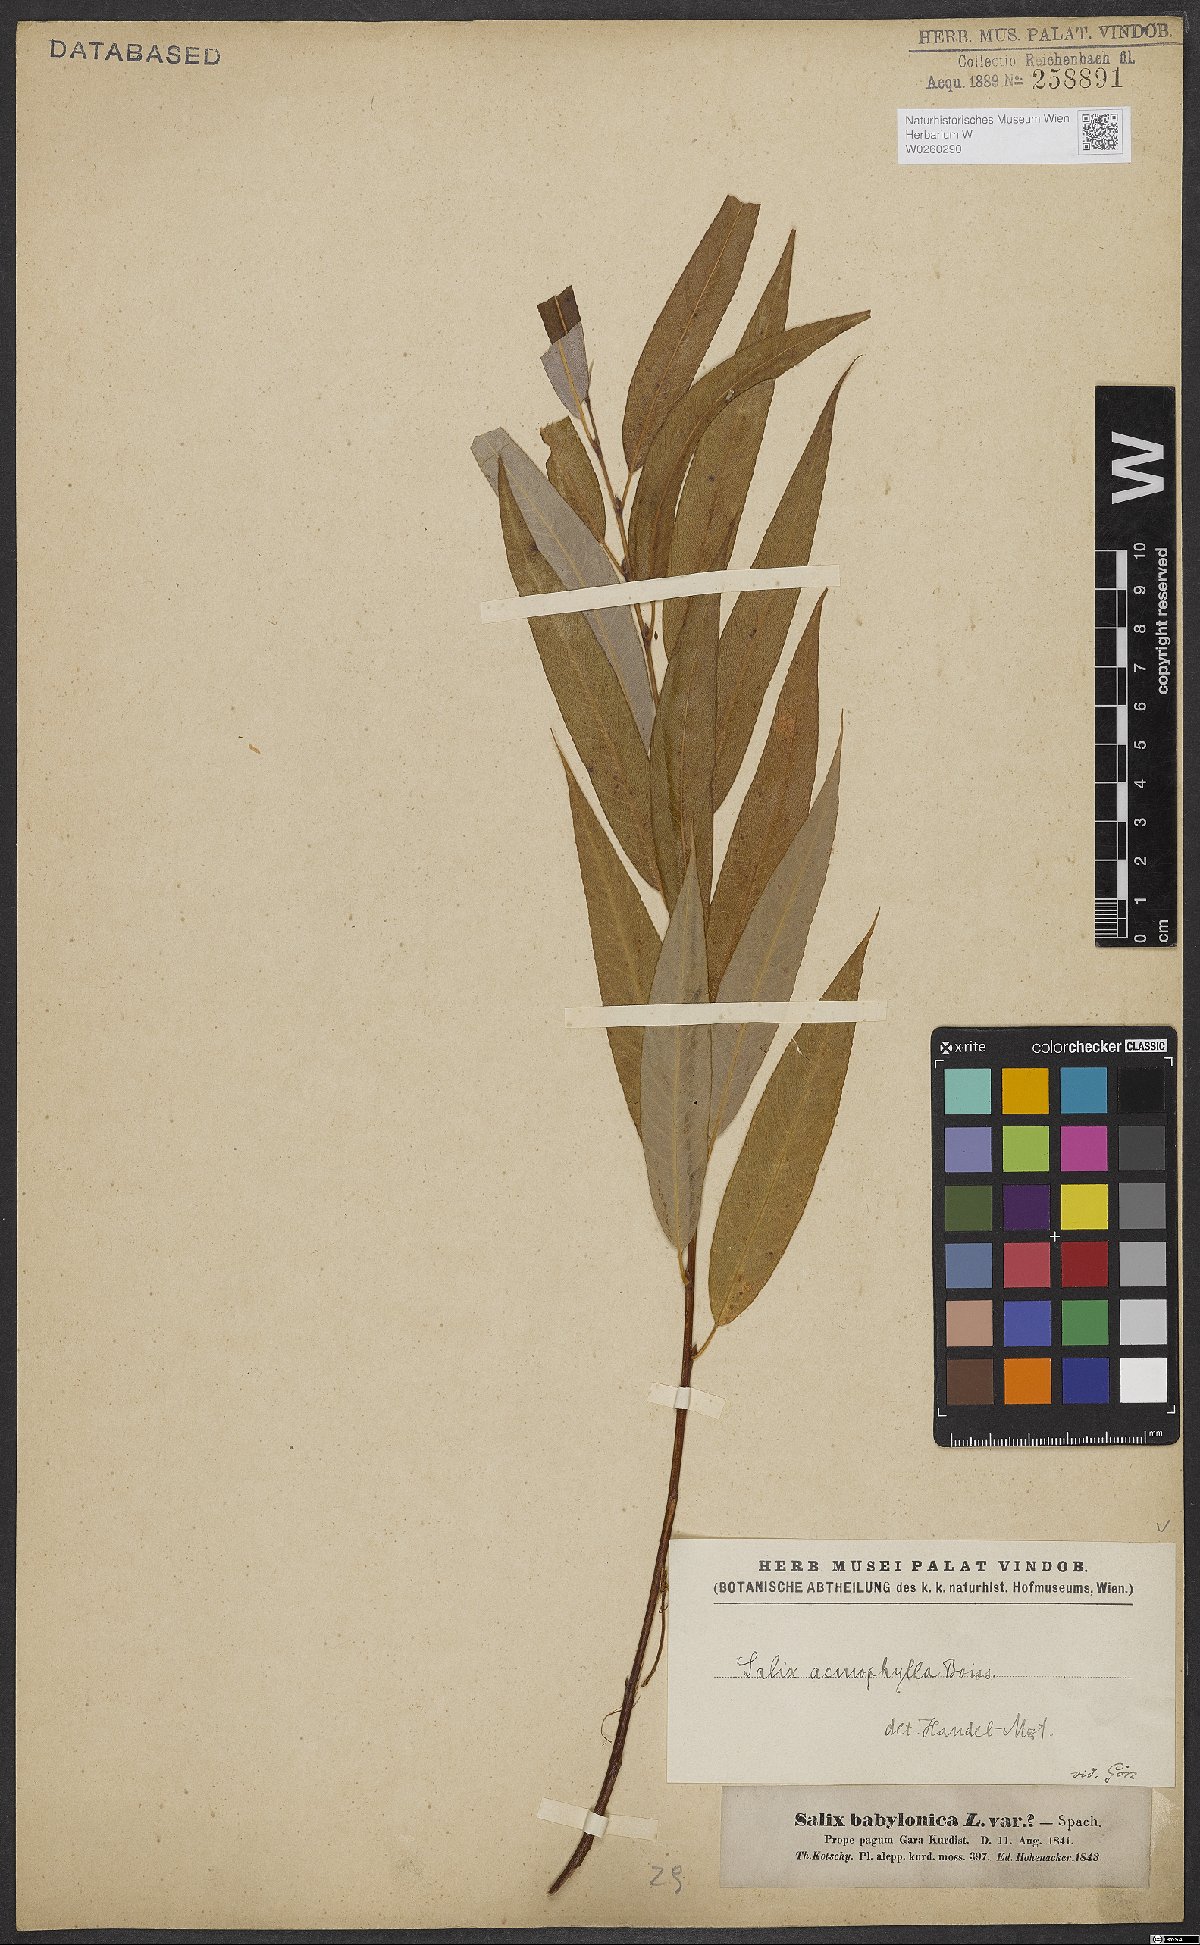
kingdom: Plantae
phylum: Tracheophyta
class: Magnoliopsida
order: Malpighiales
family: Salicaceae
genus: Salix
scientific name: Salix acmophylla
